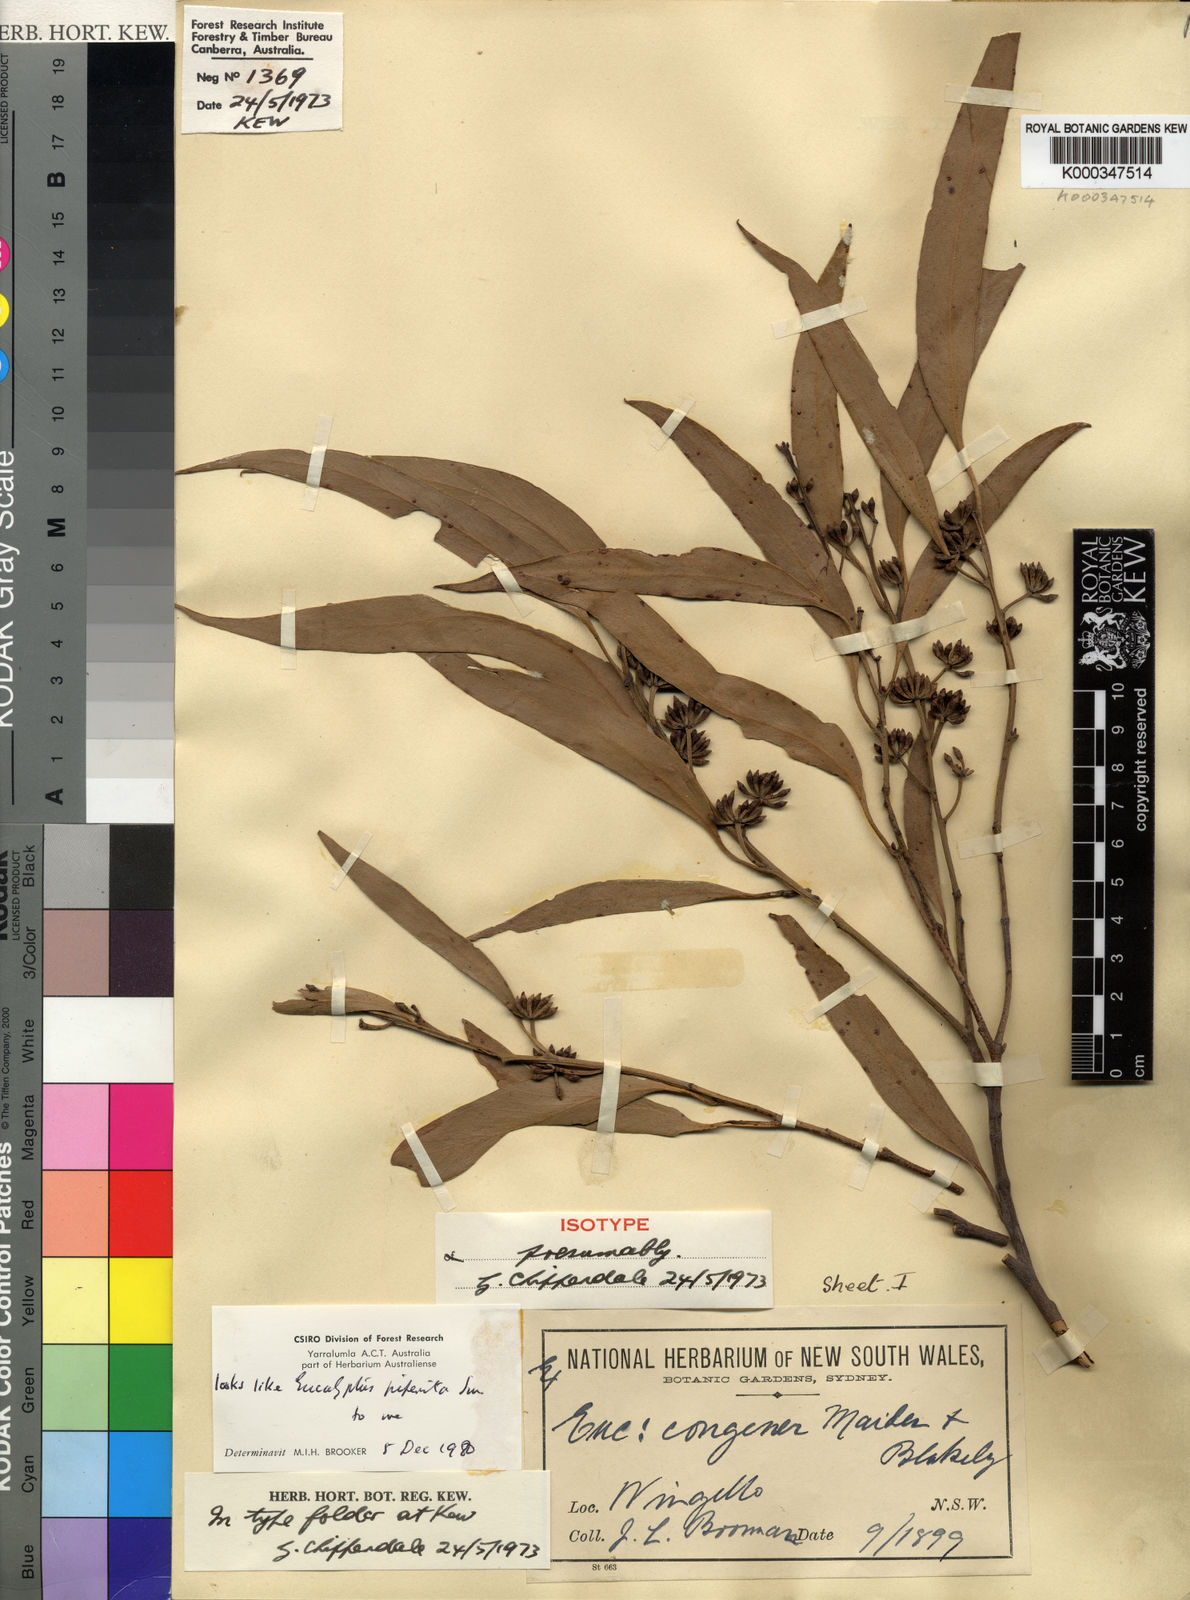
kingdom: Plantae
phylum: Tracheophyta
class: Magnoliopsida
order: Myrtales
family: Myrtaceae
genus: Eucalyptus
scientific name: Eucalyptus congener
